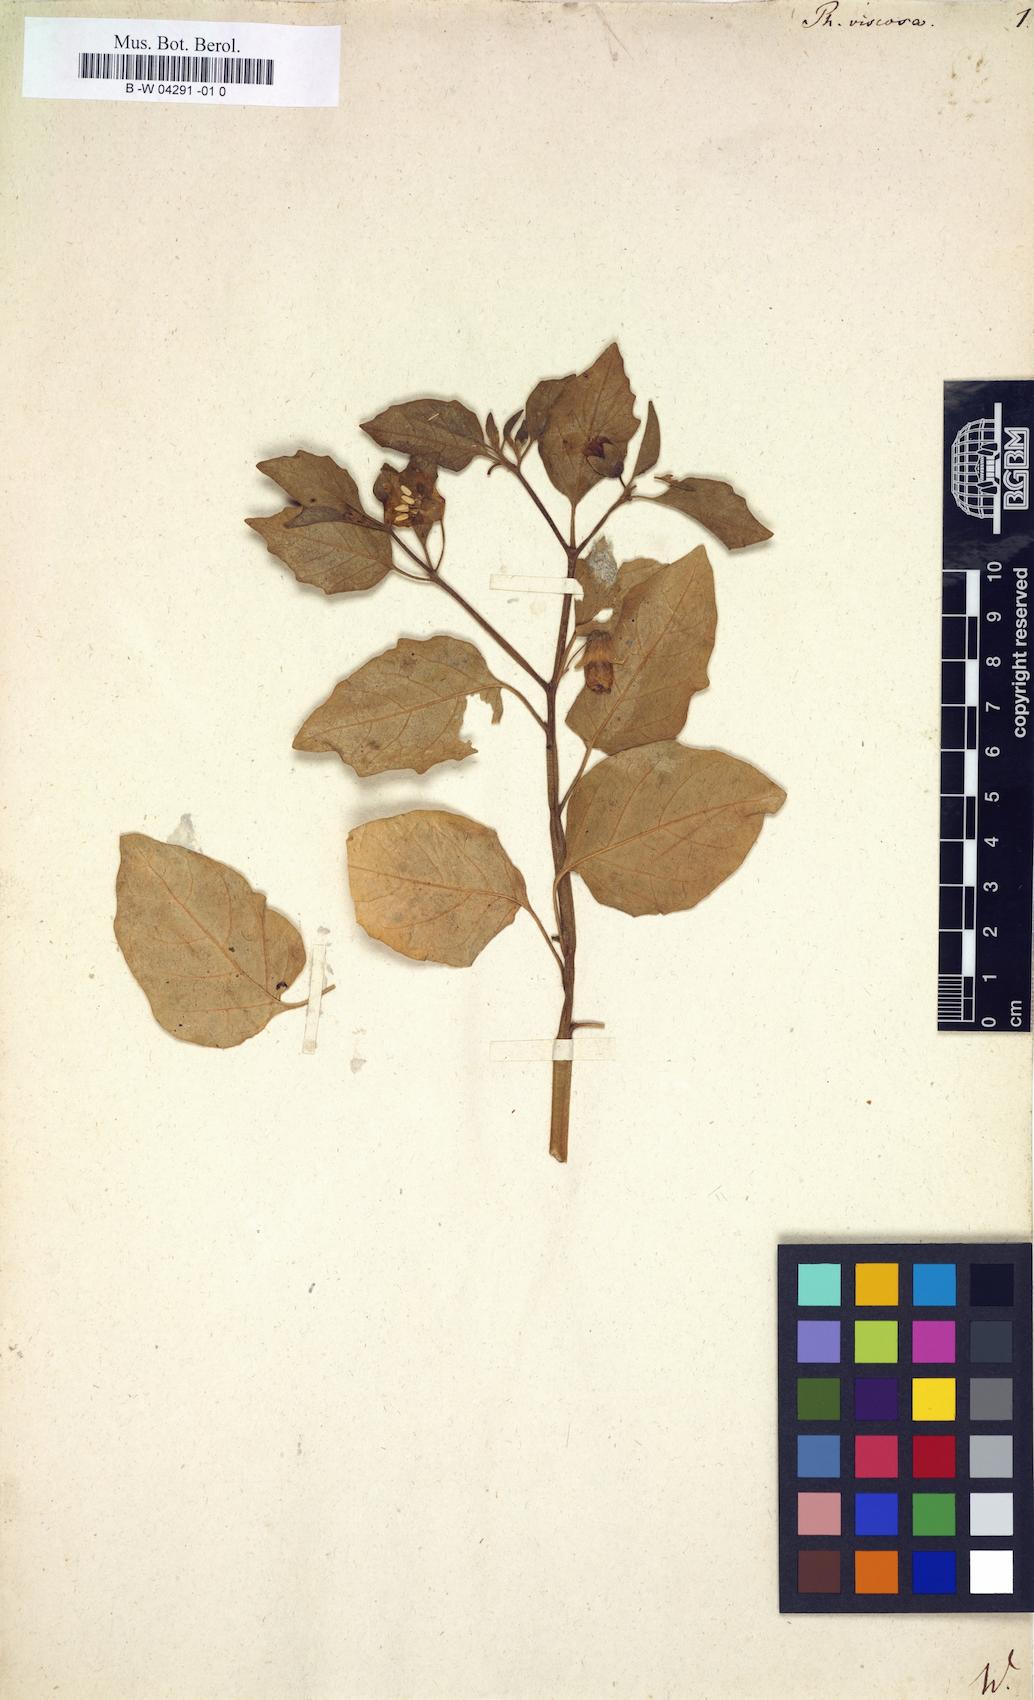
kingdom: Plantae
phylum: Tracheophyta
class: Magnoliopsida
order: Solanales
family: Solanaceae
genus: Physalis
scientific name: Physalis viscosa
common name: Stellate ground-cherry
